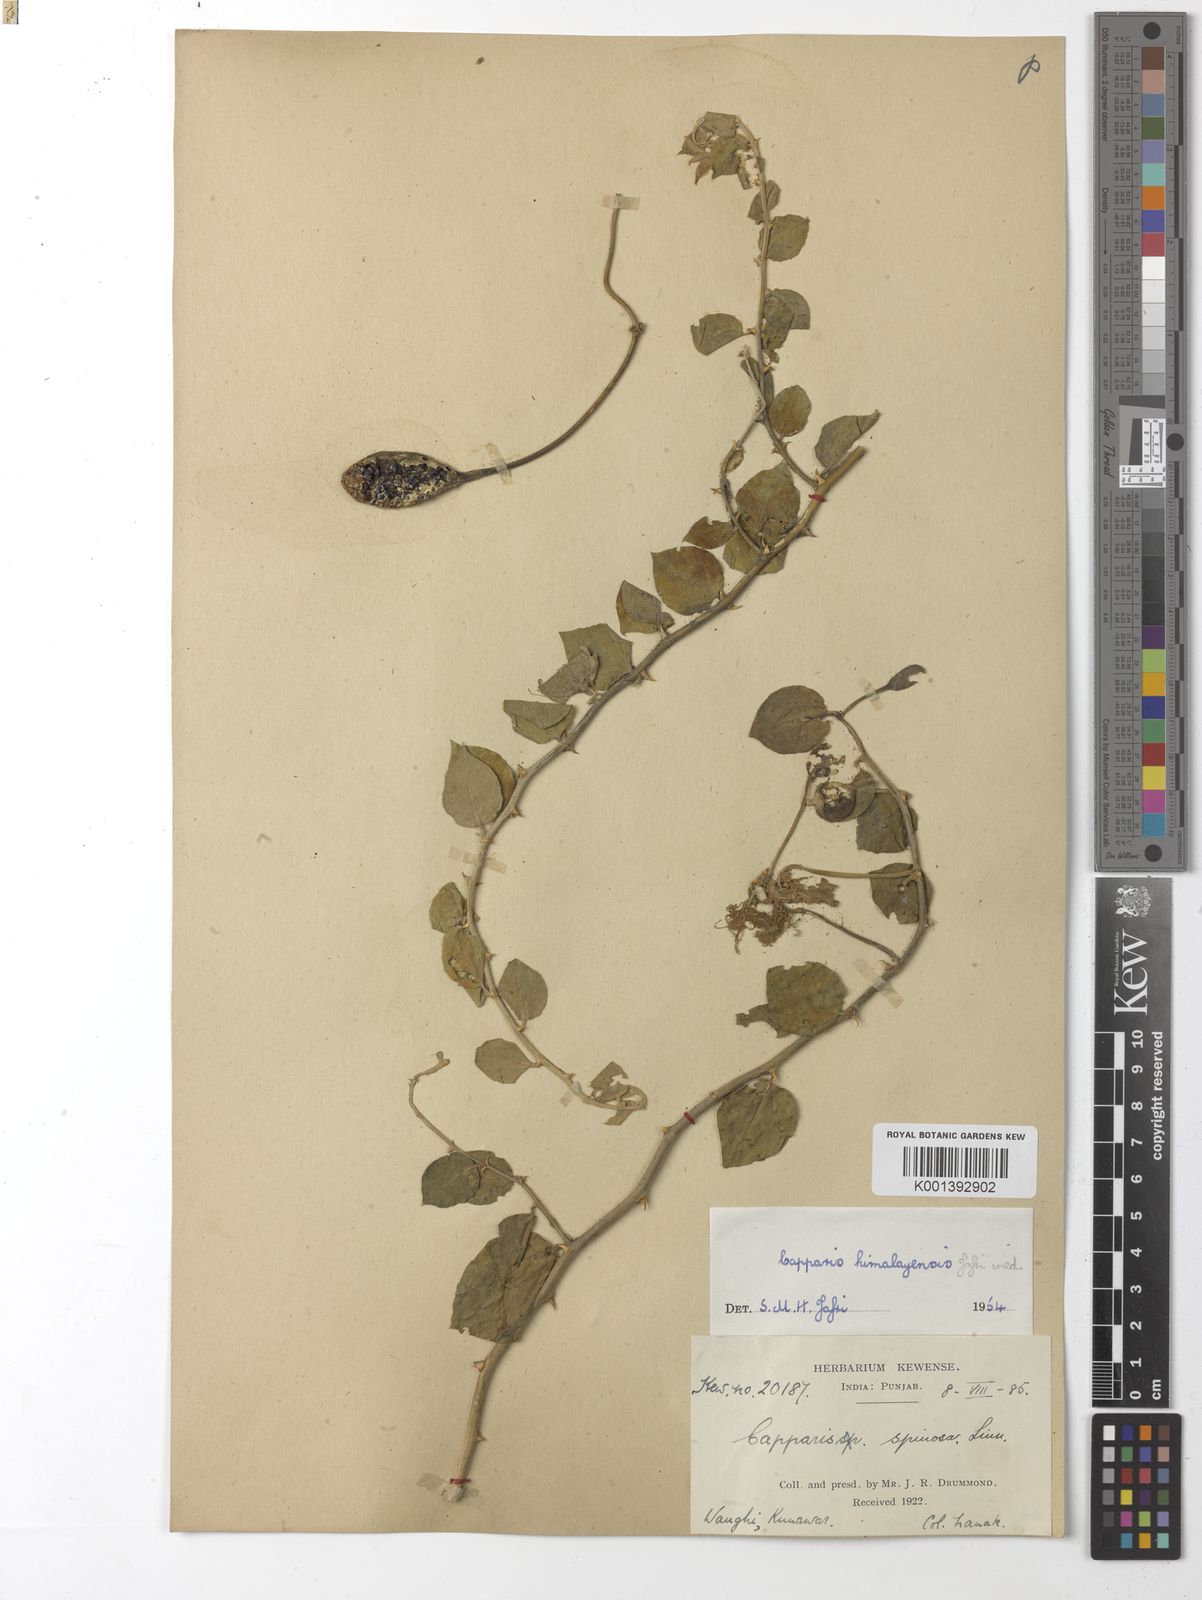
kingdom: Plantae
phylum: Tracheophyta
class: Magnoliopsida
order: Brassicales
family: Capparaceae
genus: Capparis
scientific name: Capparis spinosa
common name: Caper
